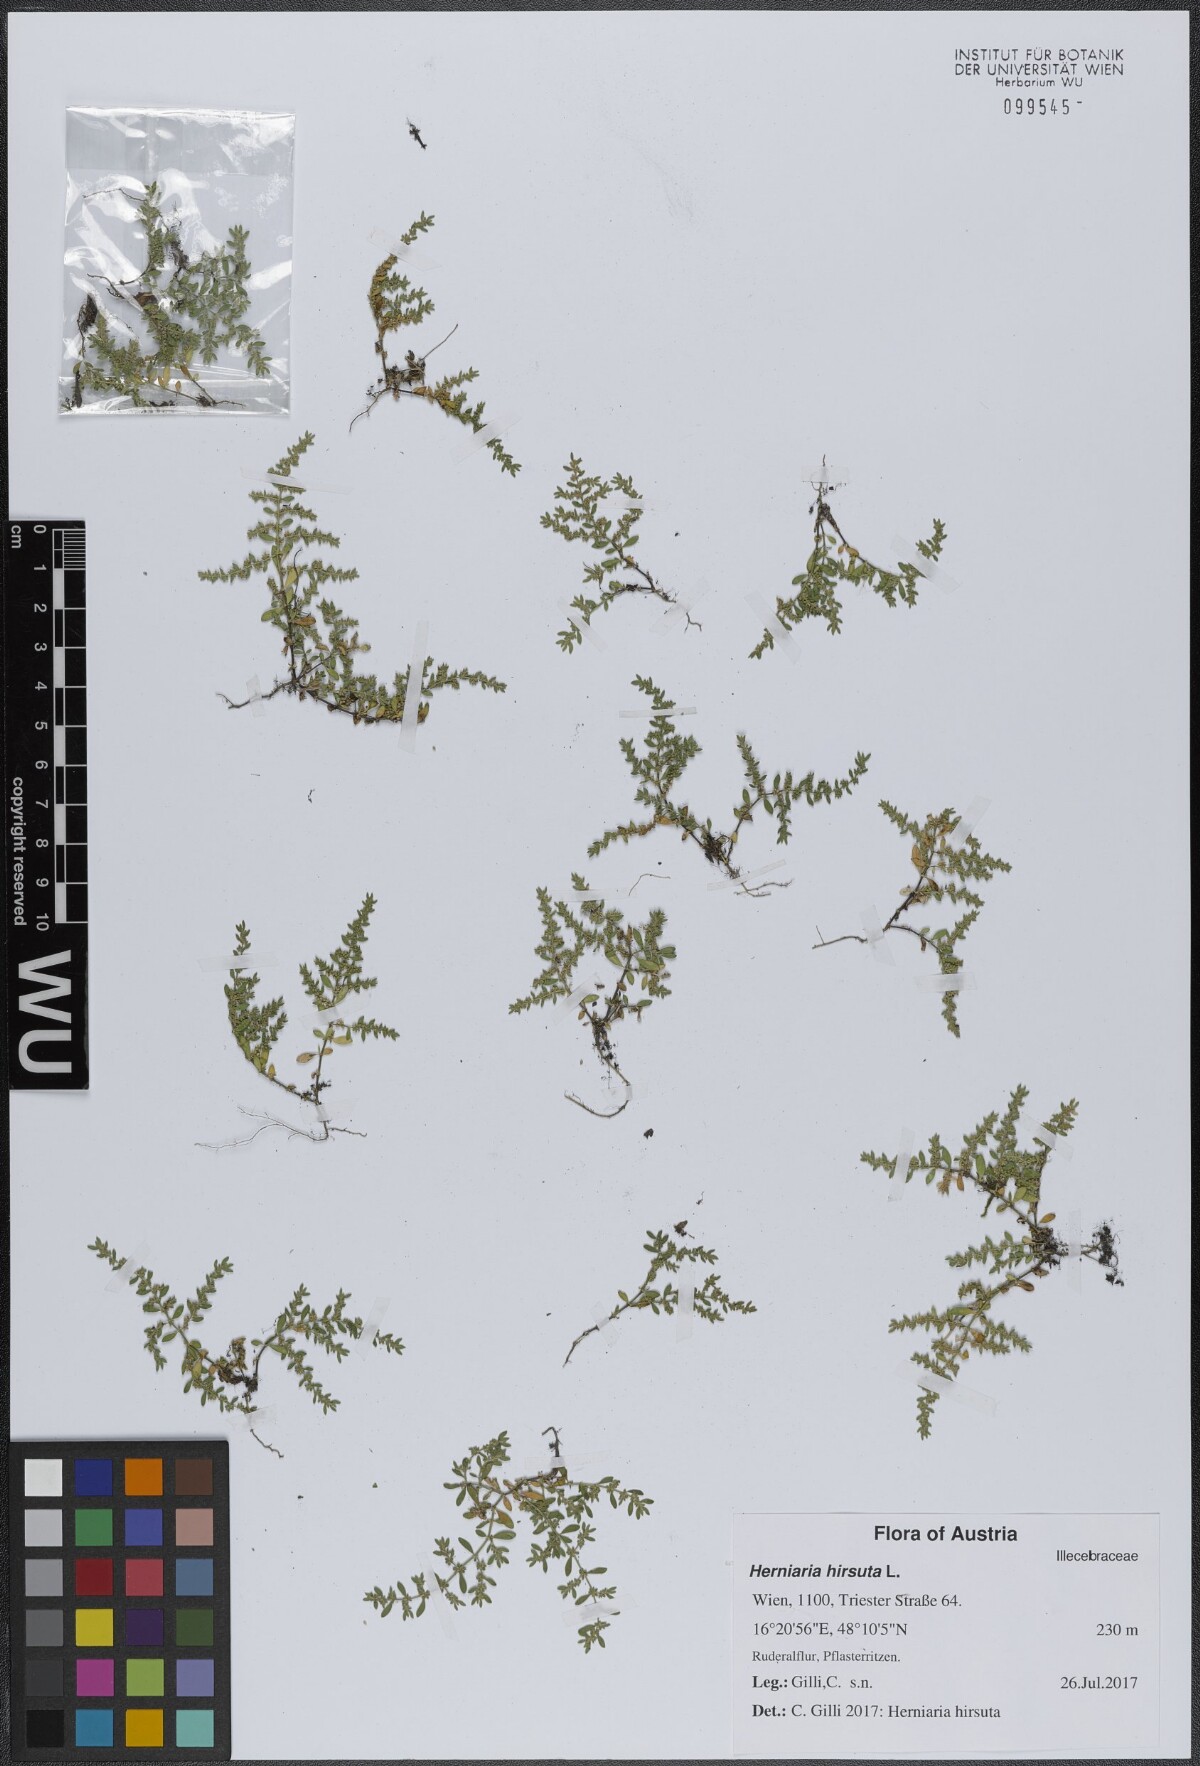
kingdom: Plantae
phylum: Tracheophyta
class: Magnoliopsida
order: Caryophyllales
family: Caryophyllaceae
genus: Herniaria
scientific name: Herniaria hirsuta
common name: Hairy rupturewort
